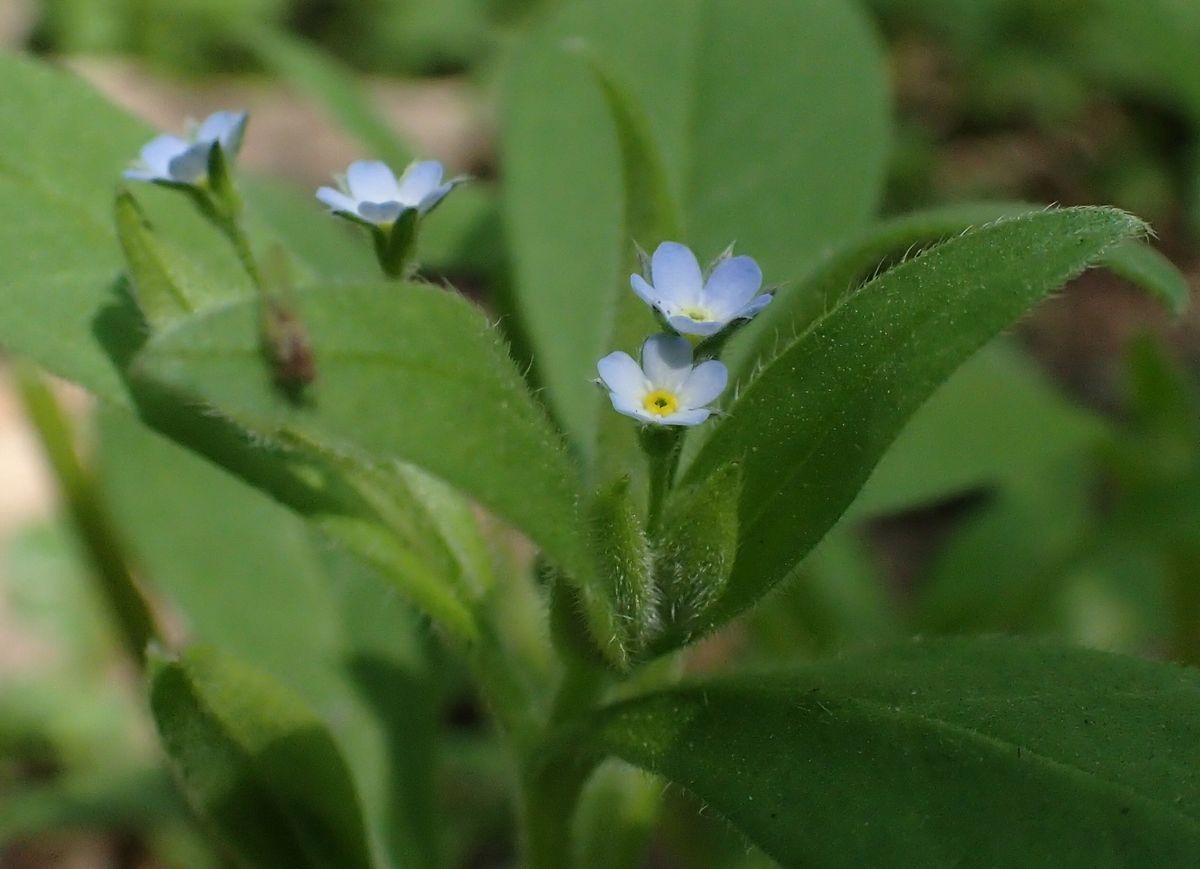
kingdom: Plantae
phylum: Tracheophyta
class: Magnoliopsida
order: Boraginales
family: Boraginaceae
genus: Myosotis
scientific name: Myosotis
